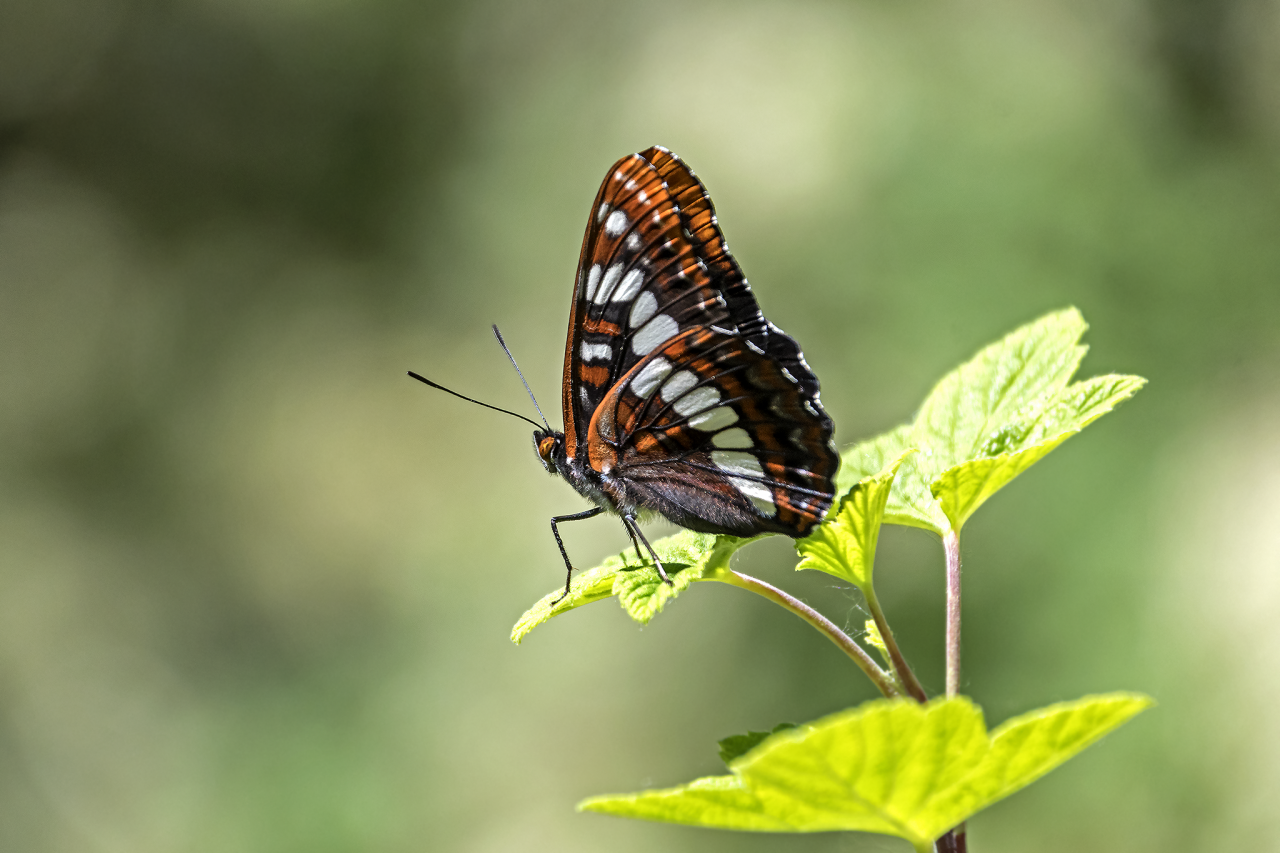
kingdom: Animalia
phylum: Arthropoda
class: Insecta
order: Lepidoptera
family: Nymphalidae
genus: Limenitis
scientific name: Limenitis lorquini
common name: Lorquin's Admiral
